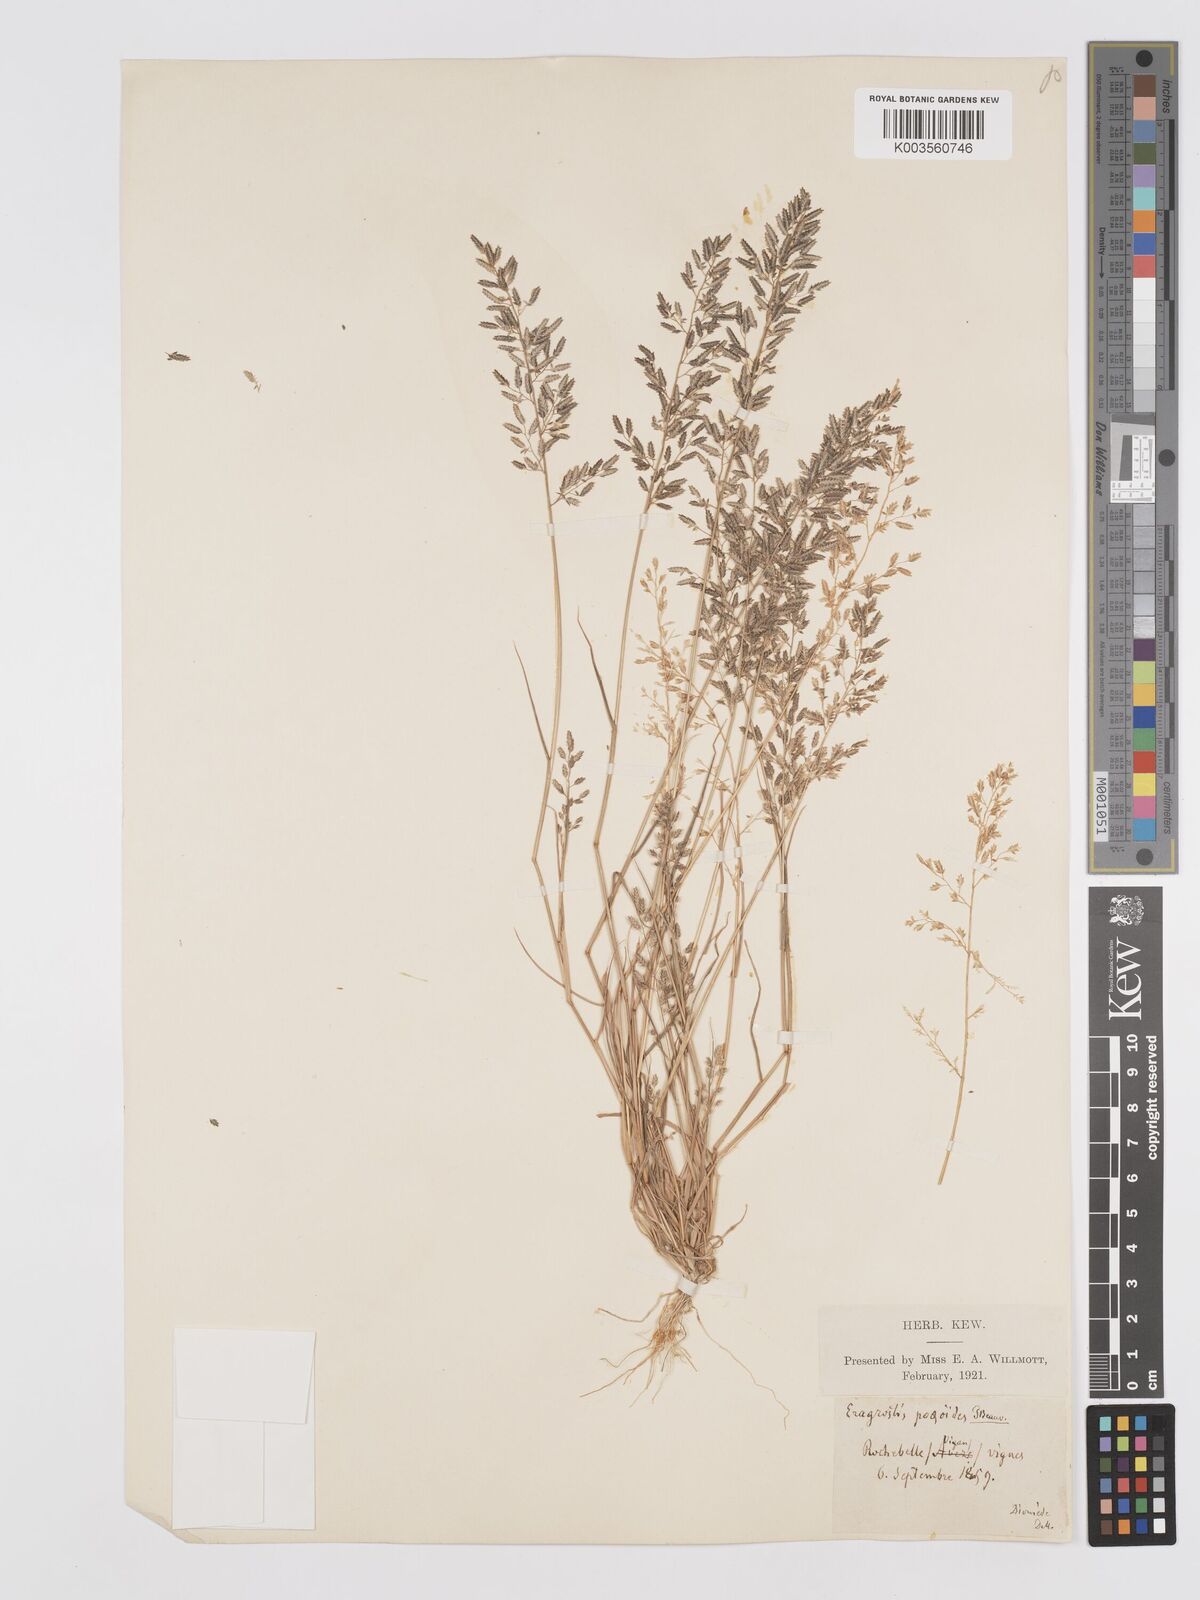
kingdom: Plantae
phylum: Tracheophyta
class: Liliopsida
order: Poales
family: Poaceae
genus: Eragrostis
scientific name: Eragrostis minor
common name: Small love-grass
